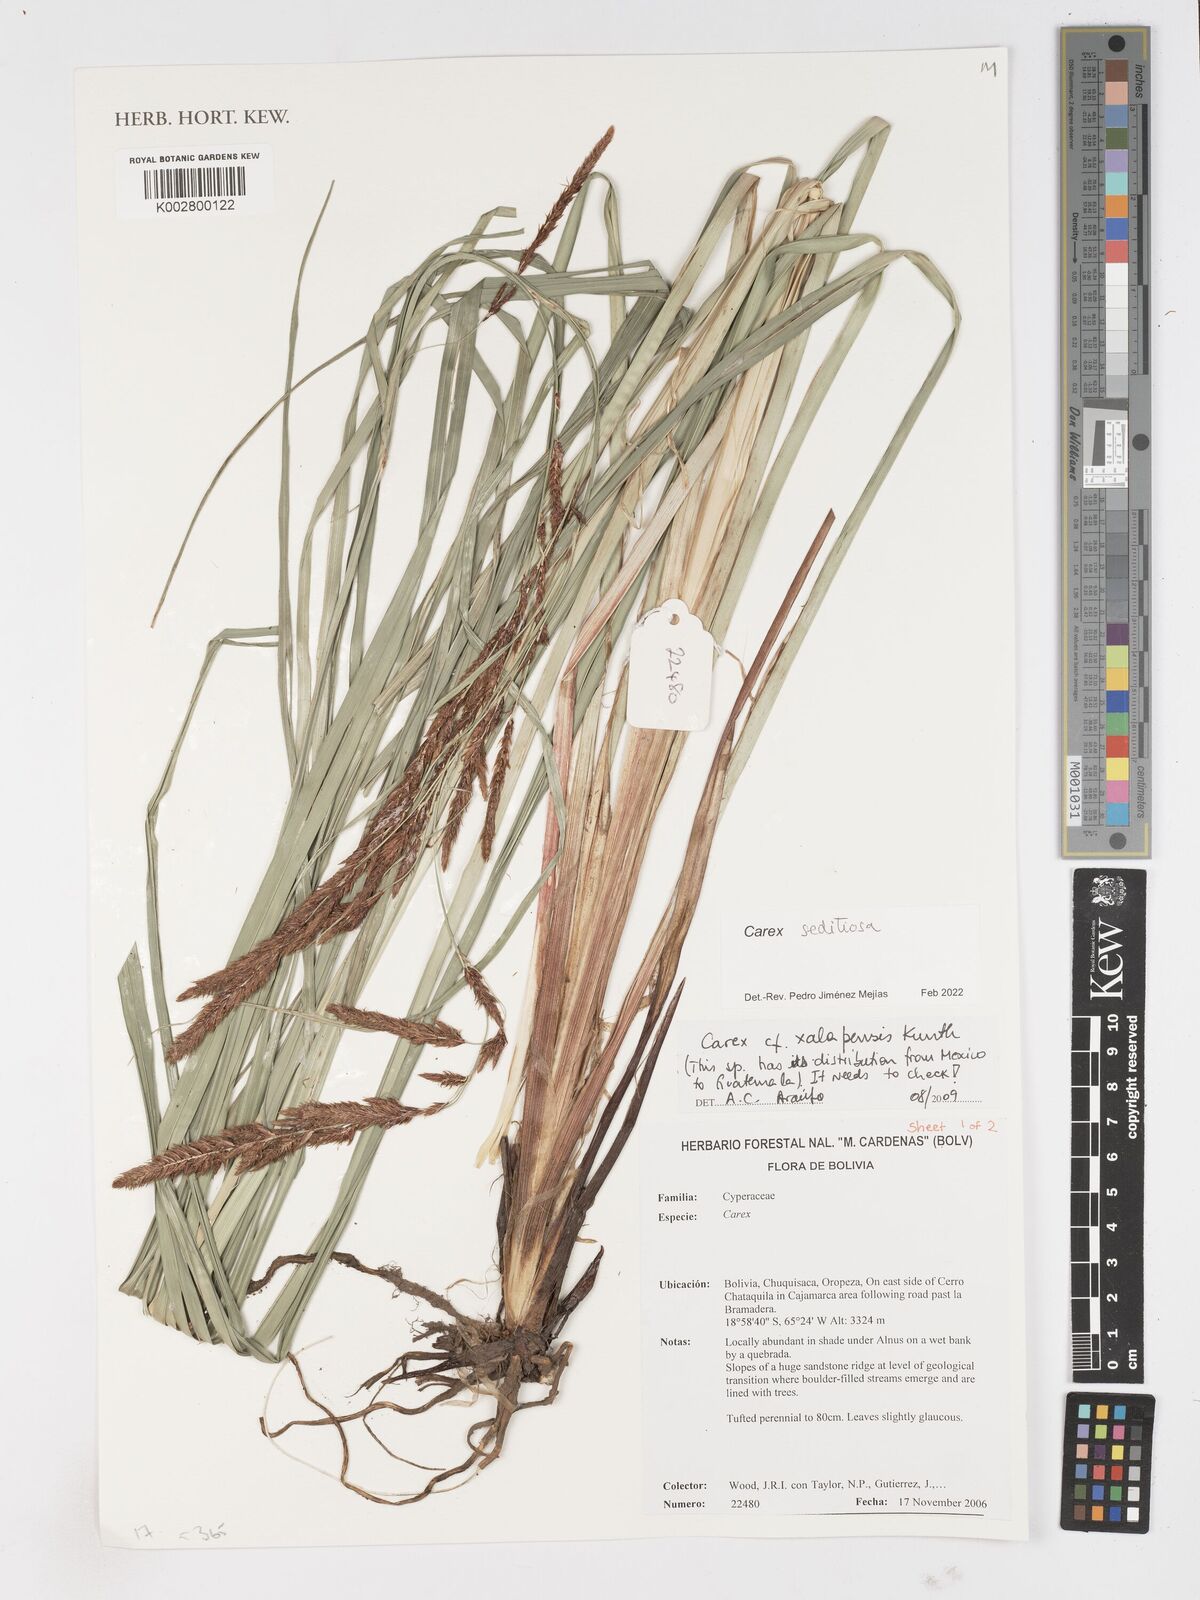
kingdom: Plantae
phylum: Tracheophyta
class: Liliopsida
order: Poales
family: Cyperaceae
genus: Carex
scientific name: Carex fecunda
